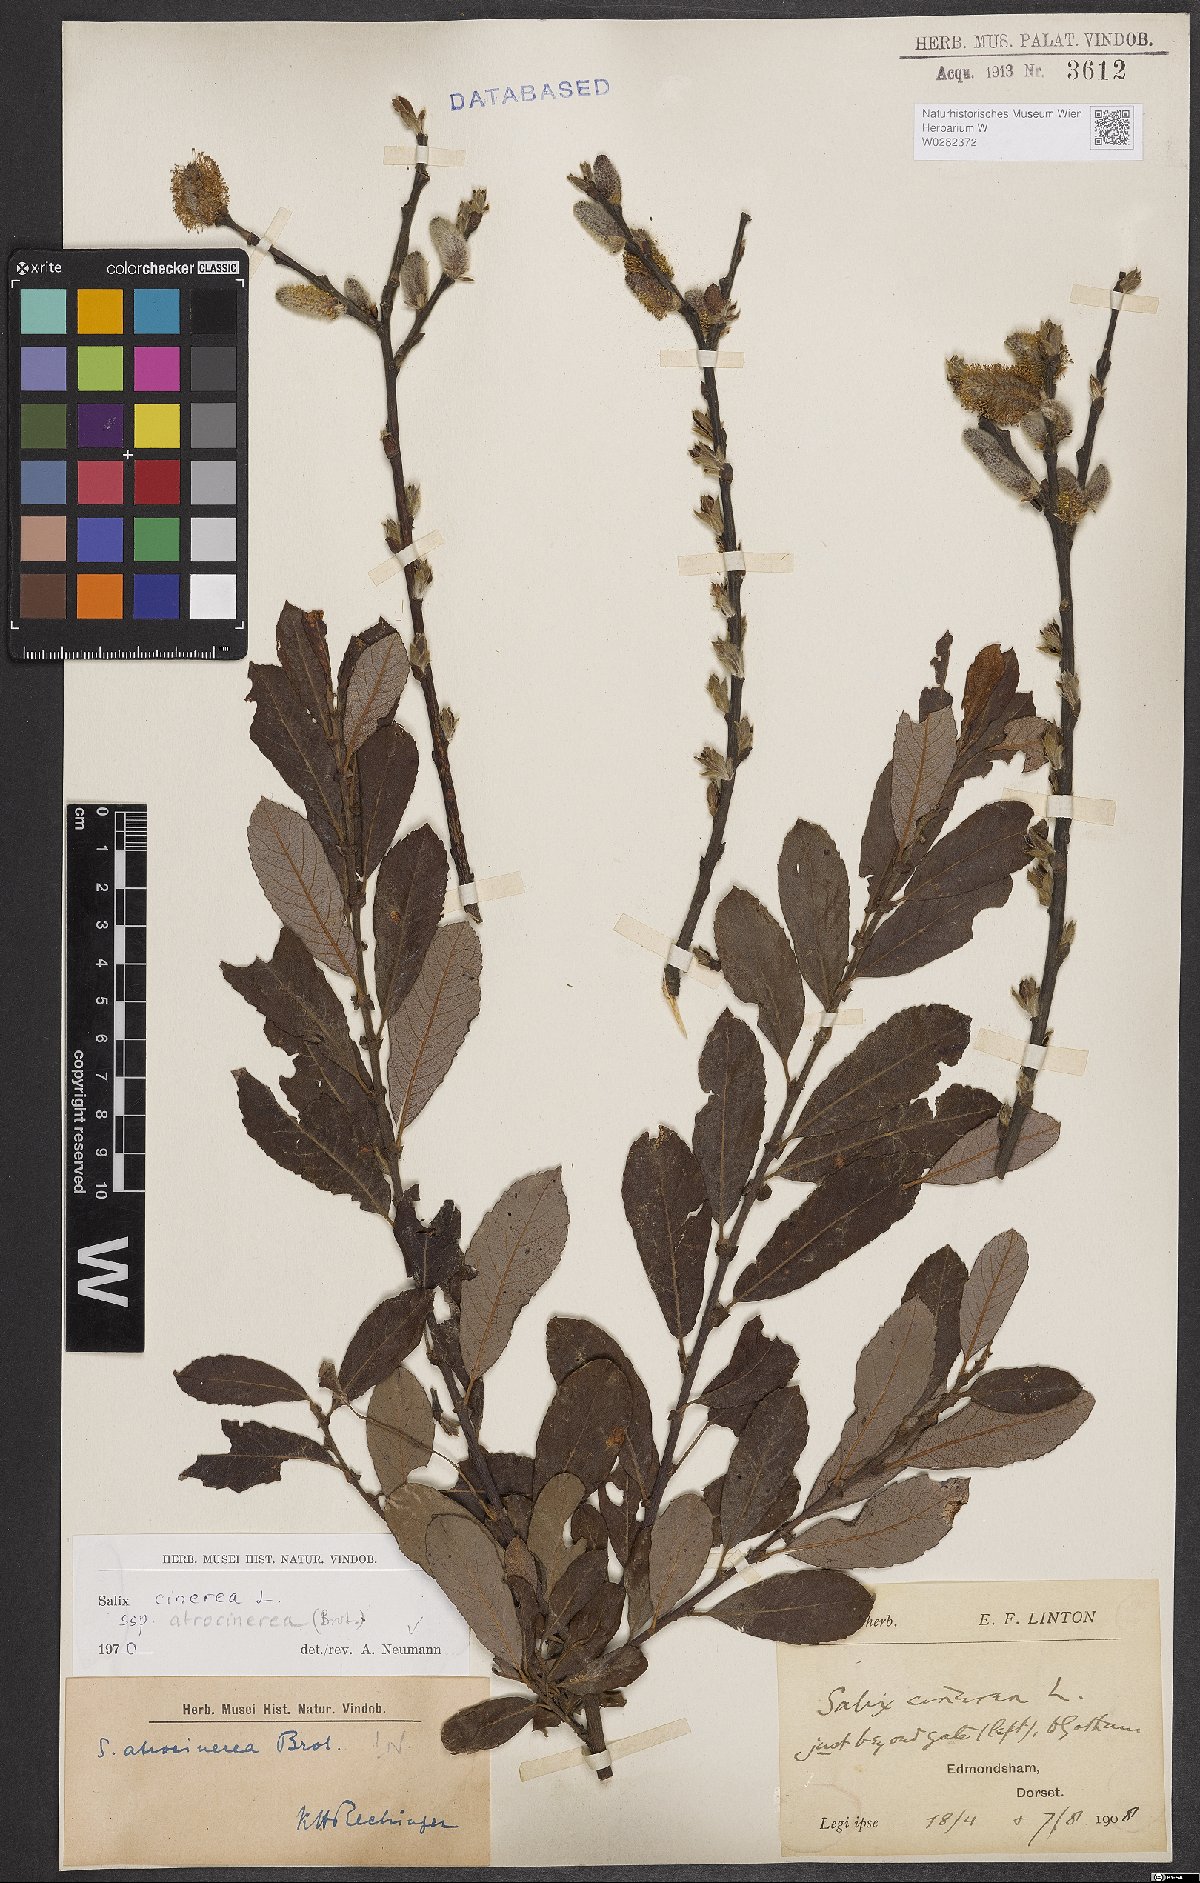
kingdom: Plantae
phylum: Tracheophyta
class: Magnoliopsida
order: Malpighiales
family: Salicaceae
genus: Salix
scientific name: Salix atrocinerea
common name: Rusty willow
